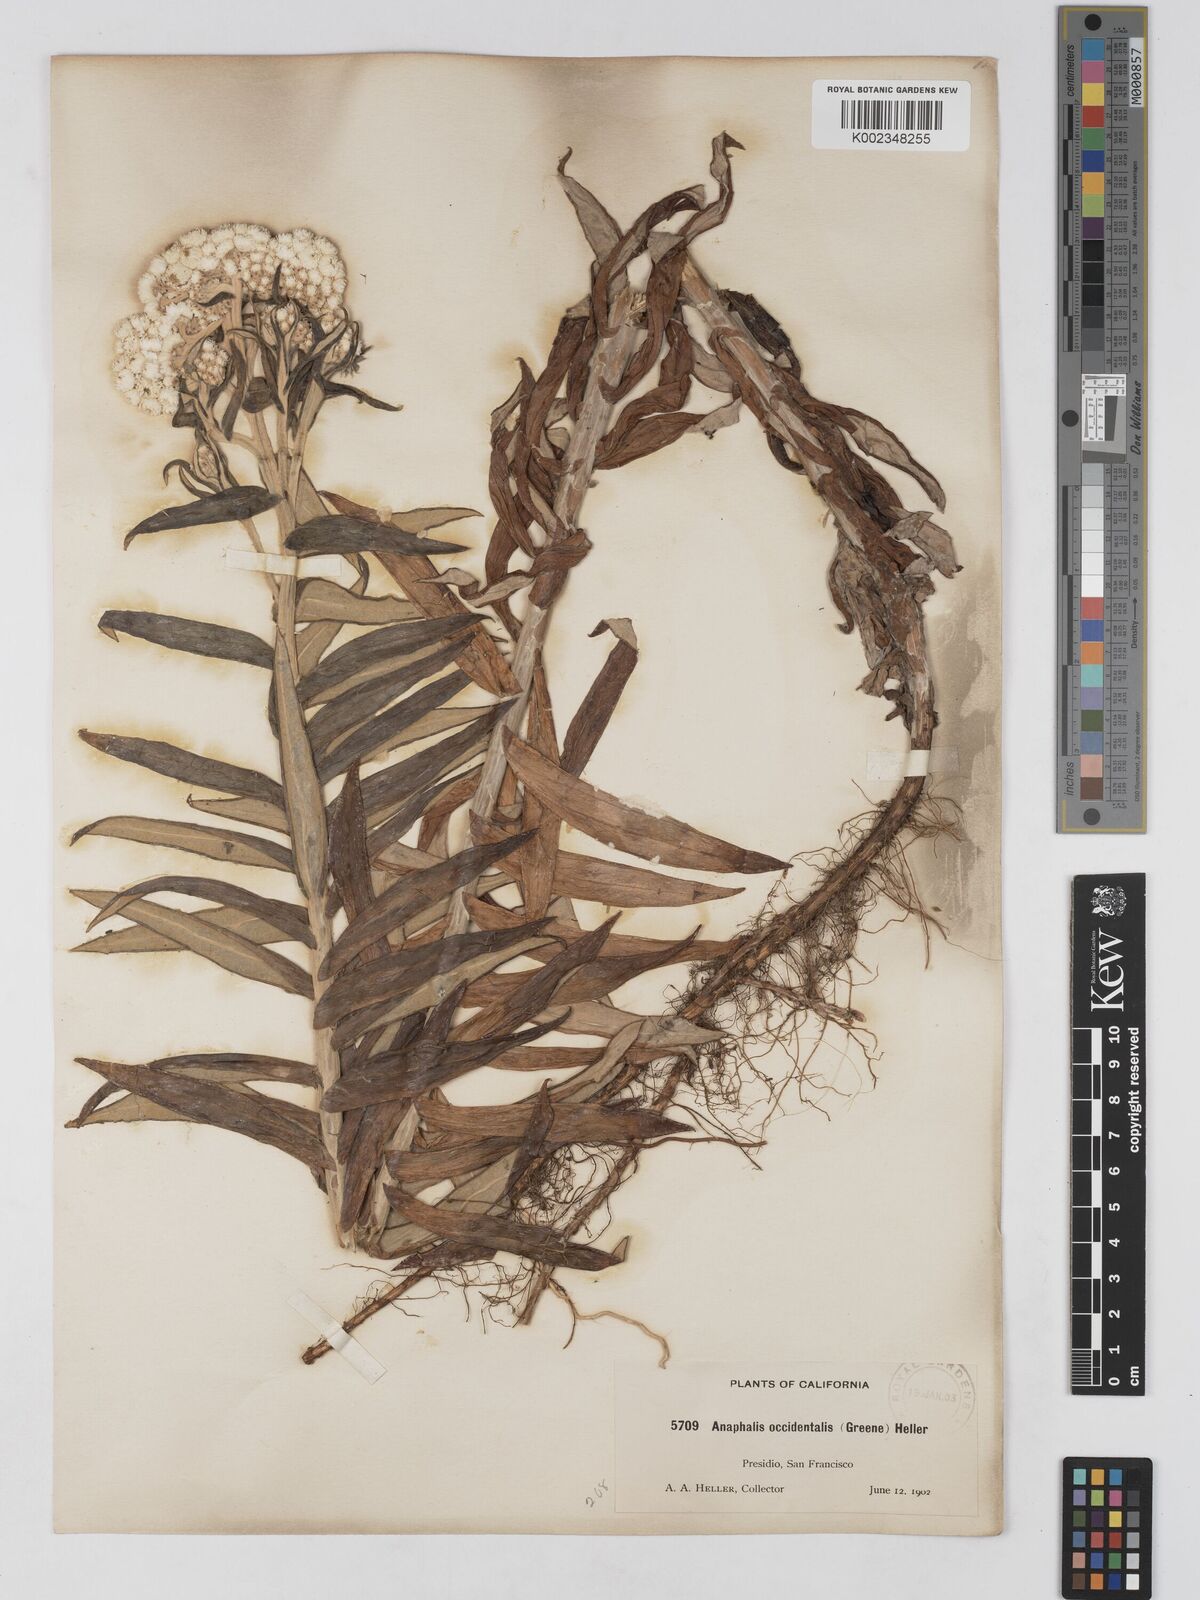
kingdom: Plantae
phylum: Tracheophyta
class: Magnoliopsida
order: Asterales
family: Asteraceae
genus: Anaphalis
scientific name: Anaphalis margaritacea
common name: Pearly everlasting
